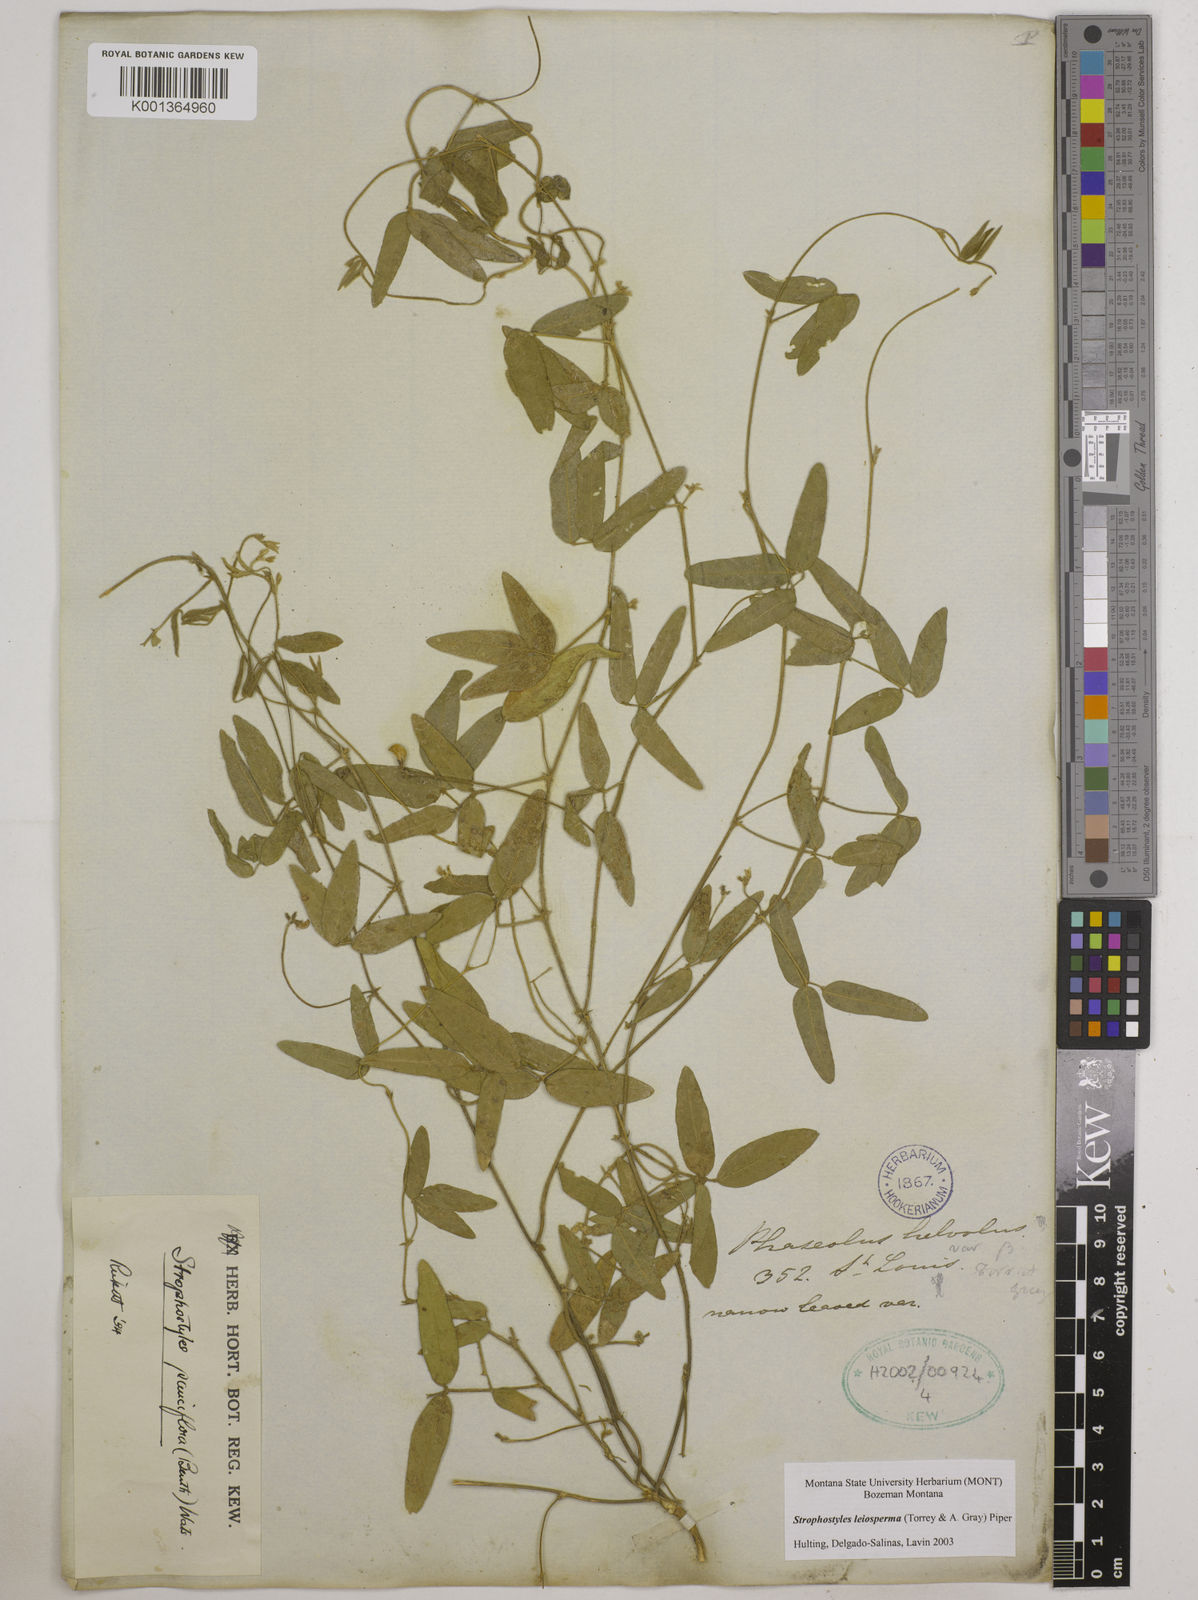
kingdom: Plantae
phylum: Tracheophyta
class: Magnoliopsida
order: Fabales
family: Fabaceae
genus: Strophostyles
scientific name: Strophostyles leiosperma
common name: Smooth-seed wild bean
